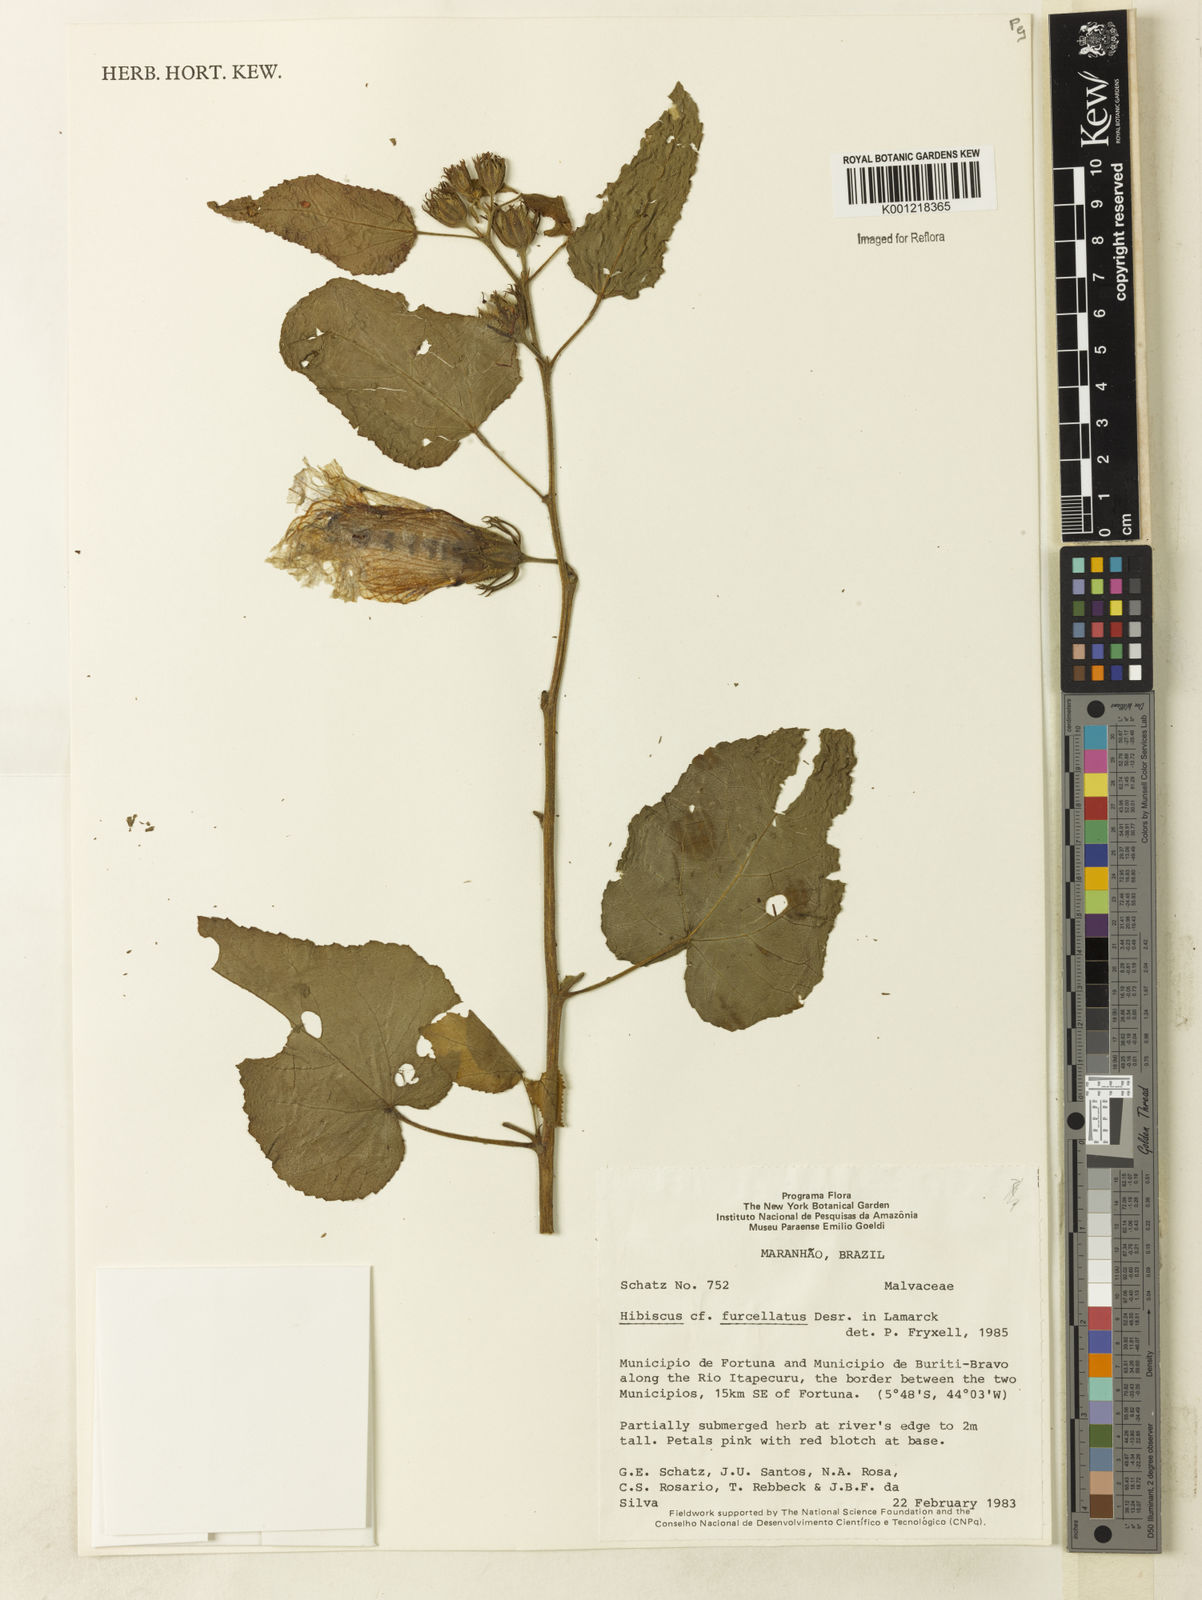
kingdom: Plantae
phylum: Tracheophyta
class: Magnoliopsida
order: Malvales
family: Malvaceae
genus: Hibiscus
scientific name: Hibiscus furcellatus
